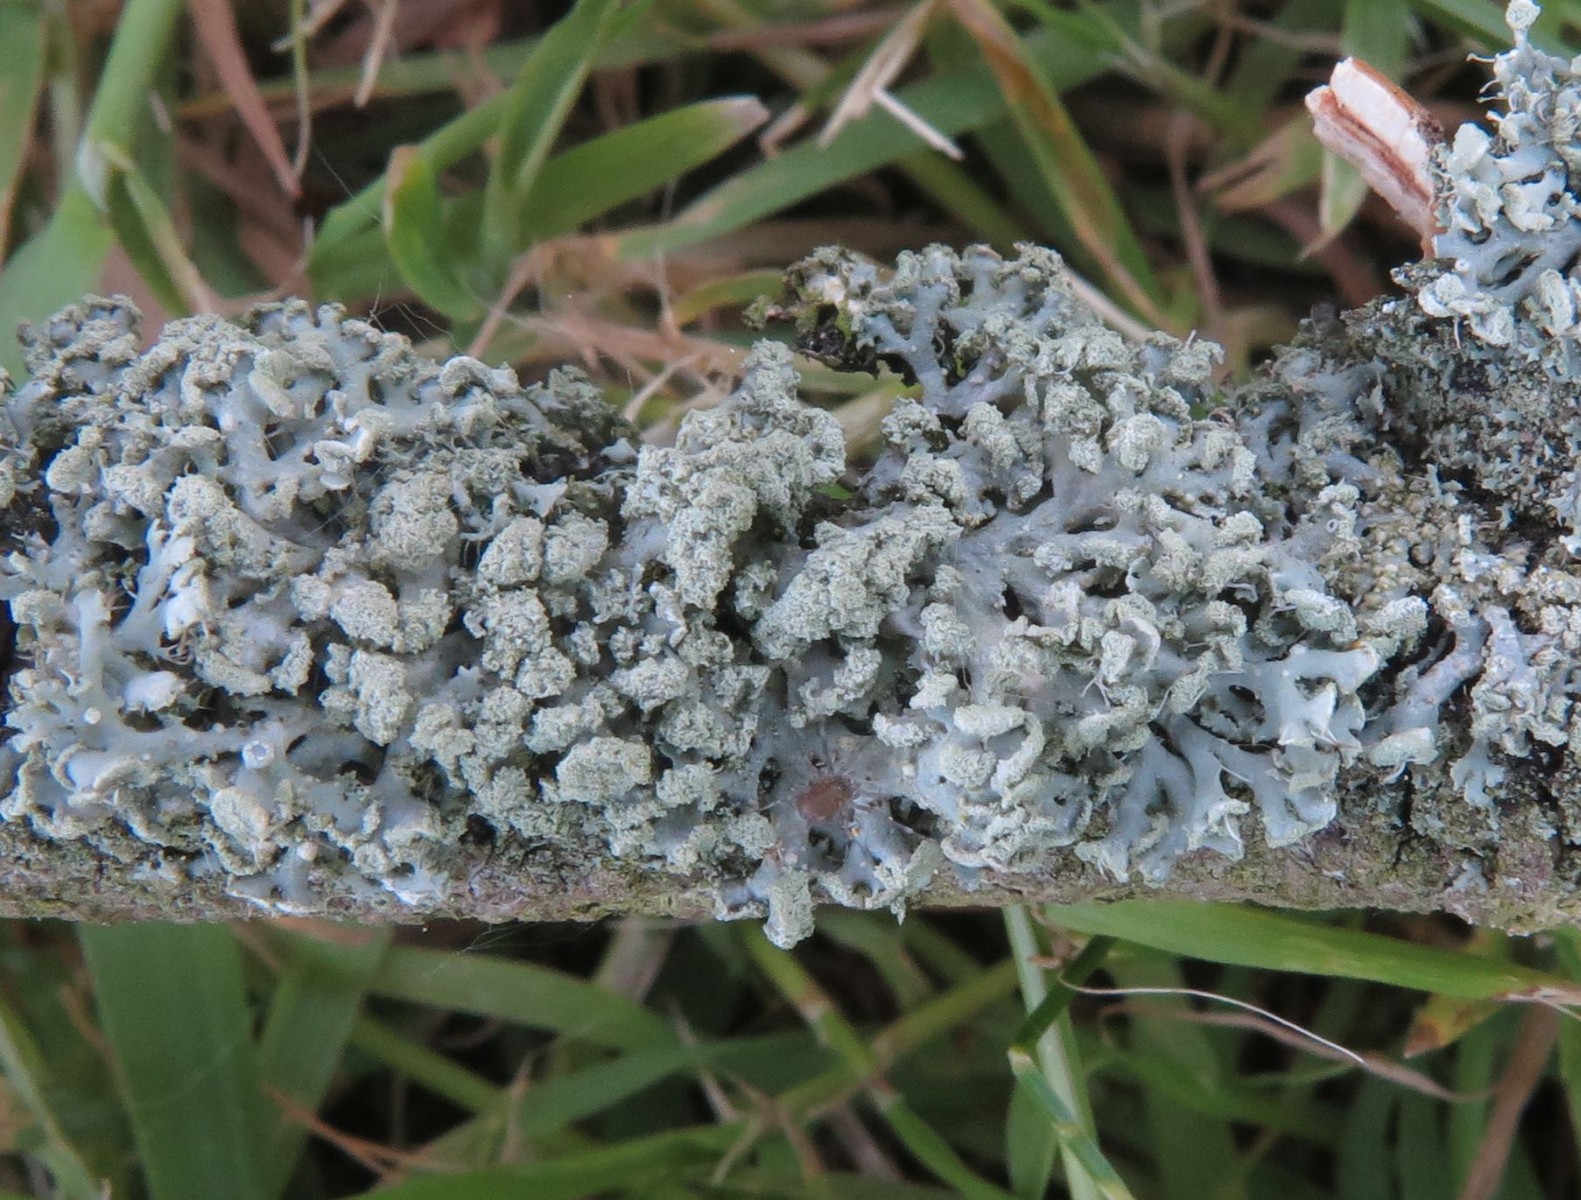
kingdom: Fungi
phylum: Ascomycota
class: Lecanoromycetes
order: Lecanorales
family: Parmeliaceae
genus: Hypogymnia
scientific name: Hypogymnia physodes
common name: almindelig kvistlav
